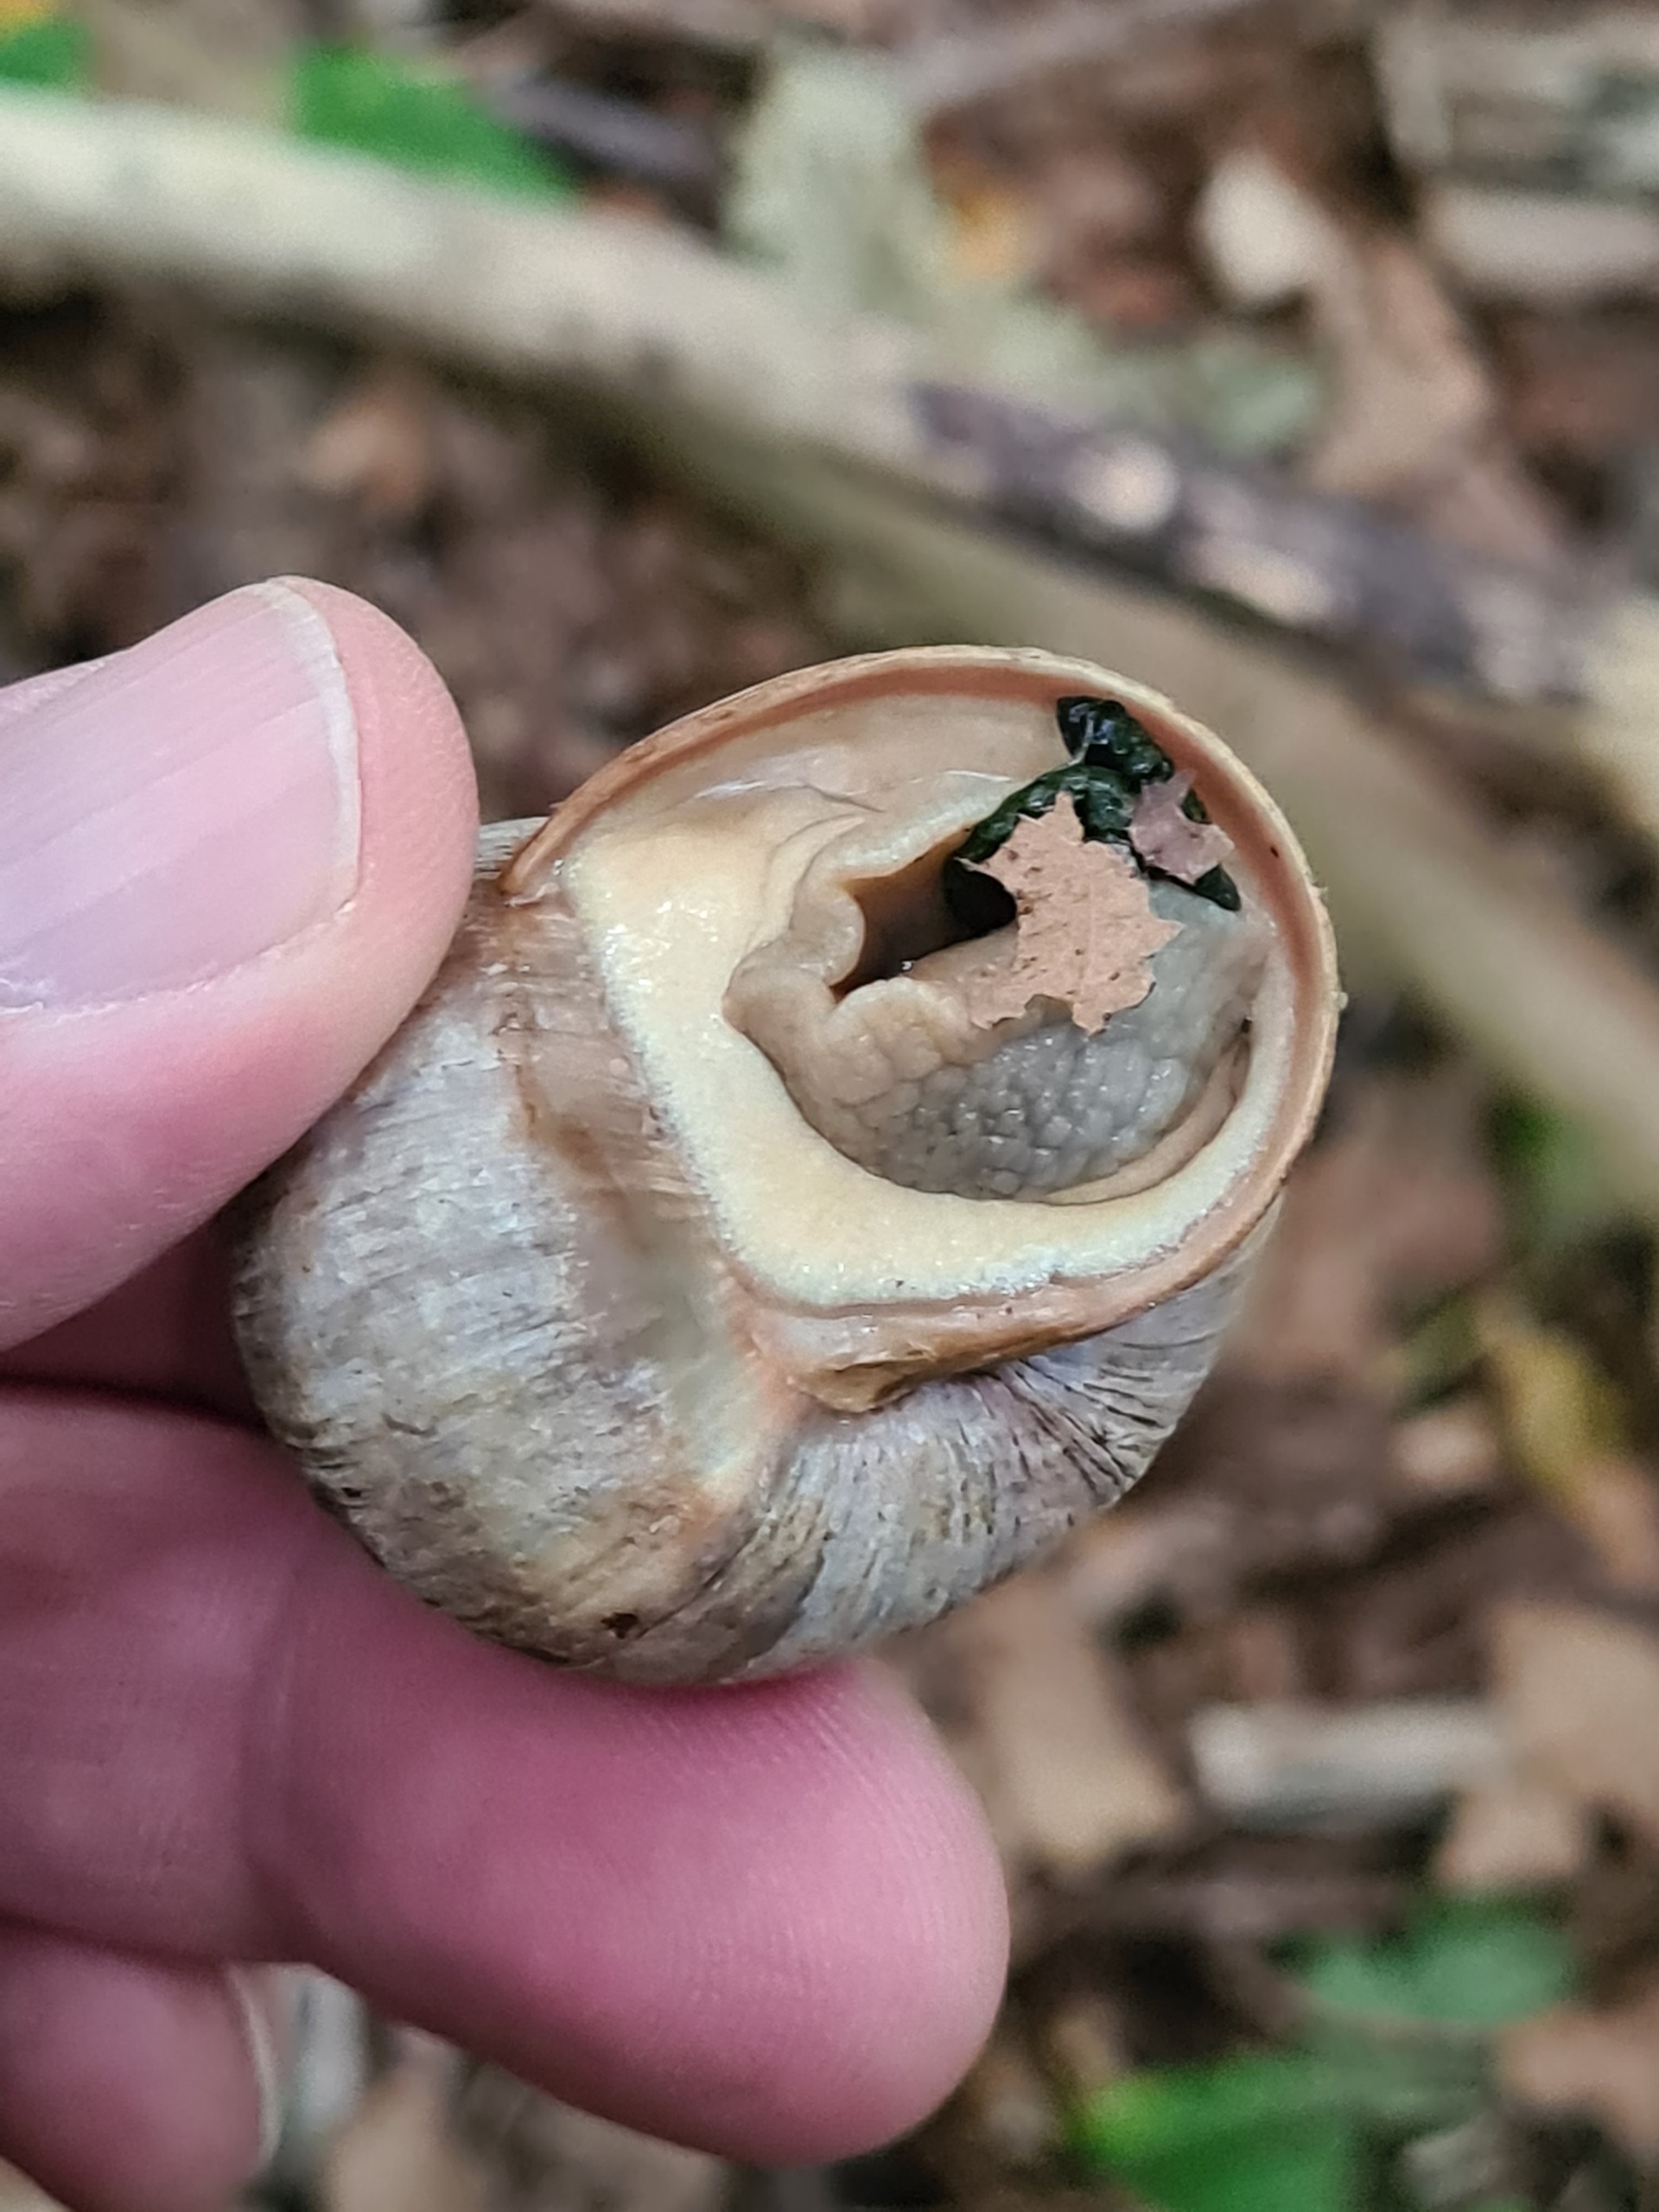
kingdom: Animalia
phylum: Mollusca
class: Gastropoda
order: Stylommatophora
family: Helicidae
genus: Helix
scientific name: Helix pomatia
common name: Vinbjergsnegl
